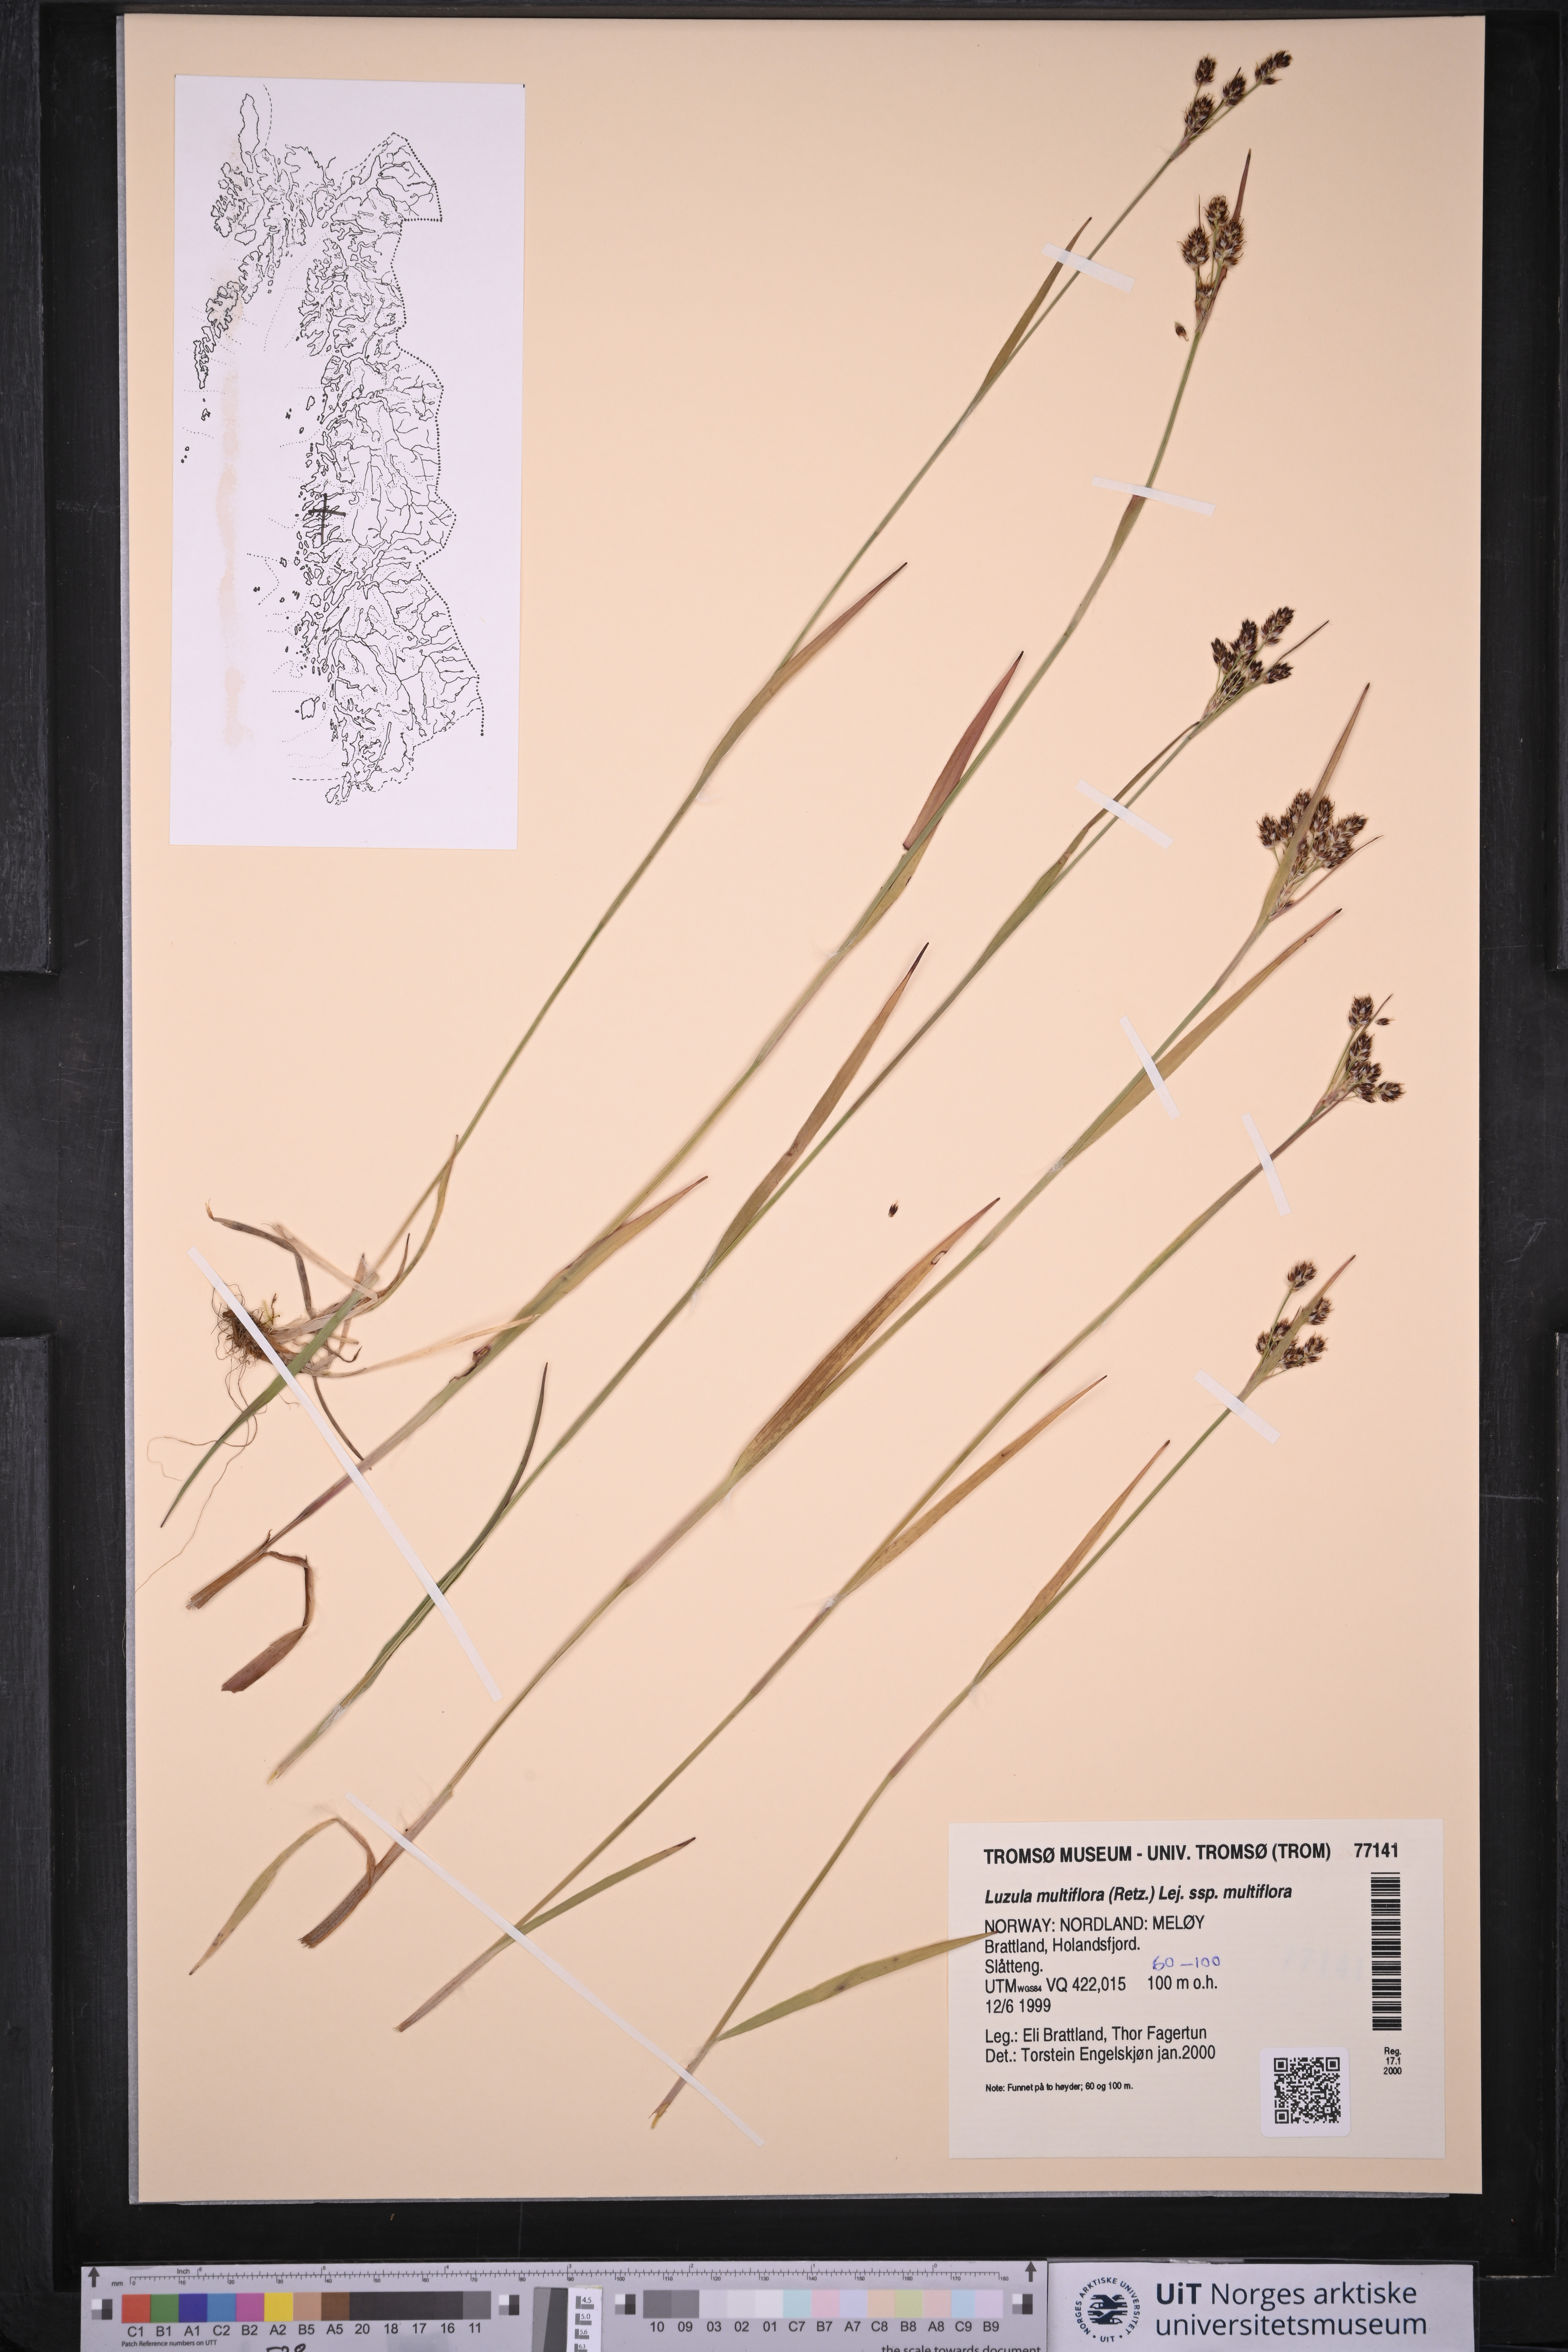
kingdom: Plantae
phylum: Tracheophyta
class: Liliopsida
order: Poales
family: Juncaceae
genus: Luzula
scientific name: Luzula multiflora
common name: Heath wood-rush
